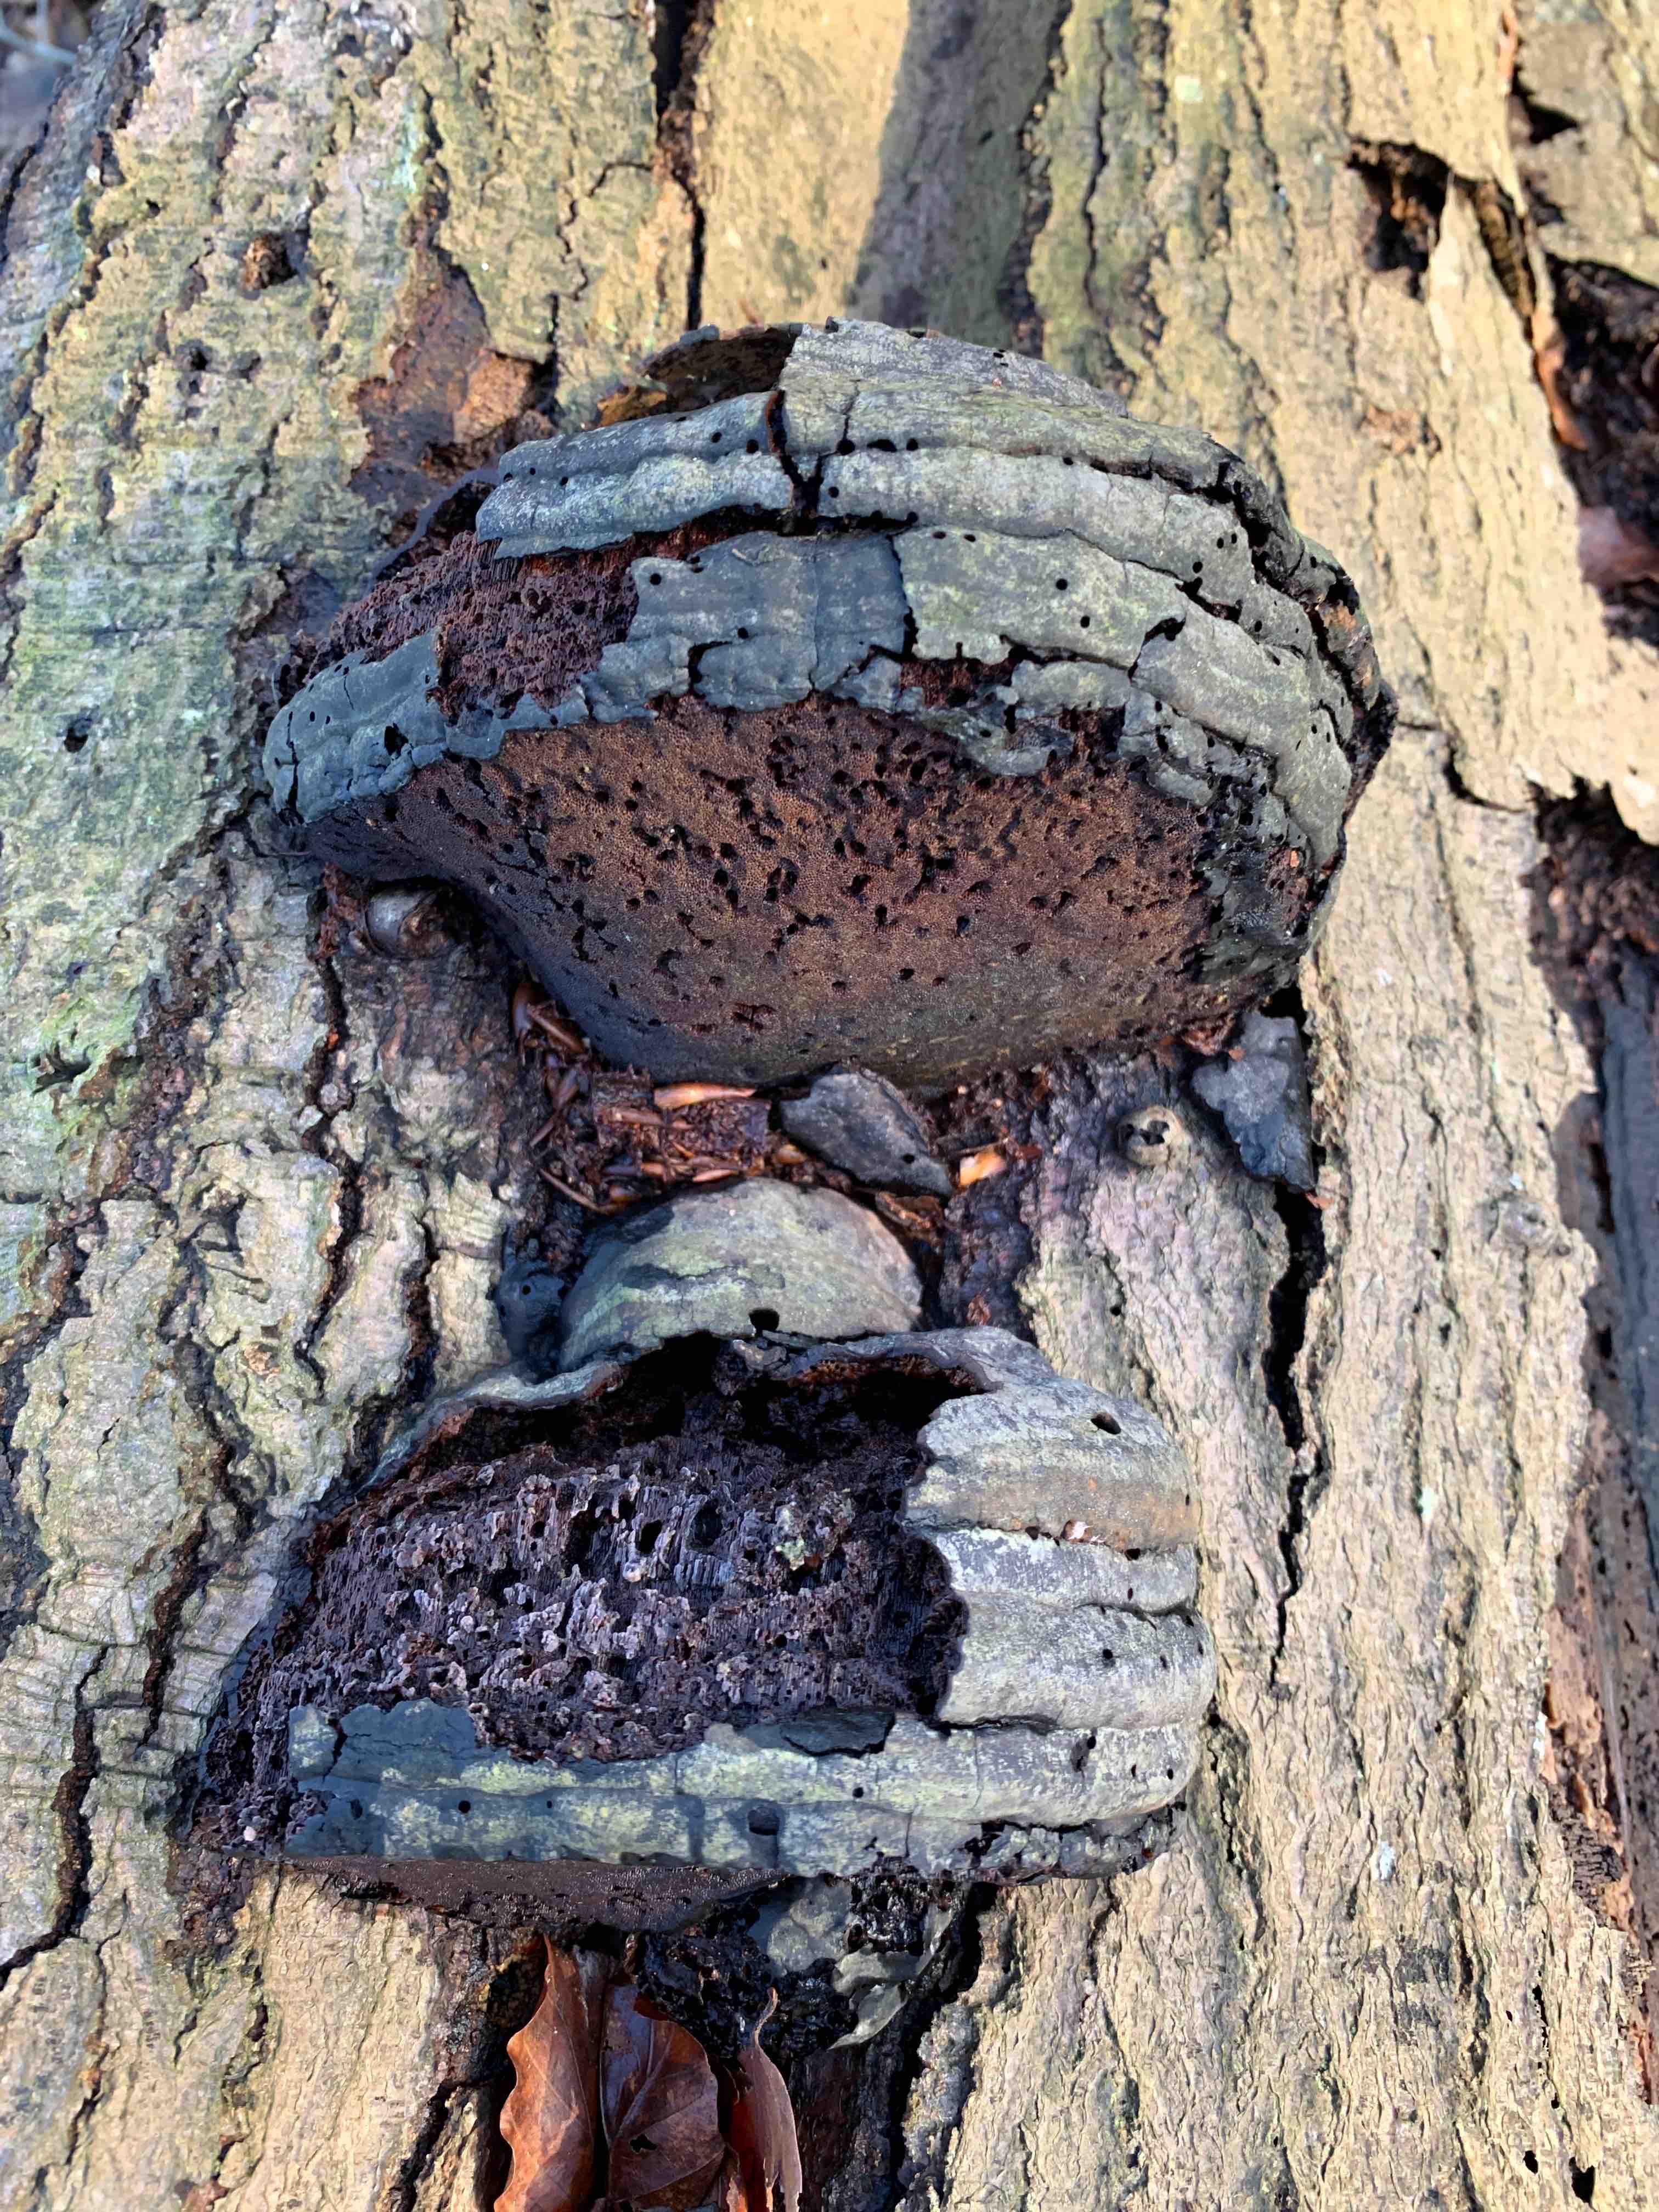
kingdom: Fungi
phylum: Basidiomycota
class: Agaricomycetes
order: Polyporales
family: Polyporaceae
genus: Fomes
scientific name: Fomes fomentarius
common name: tøndersvamp
